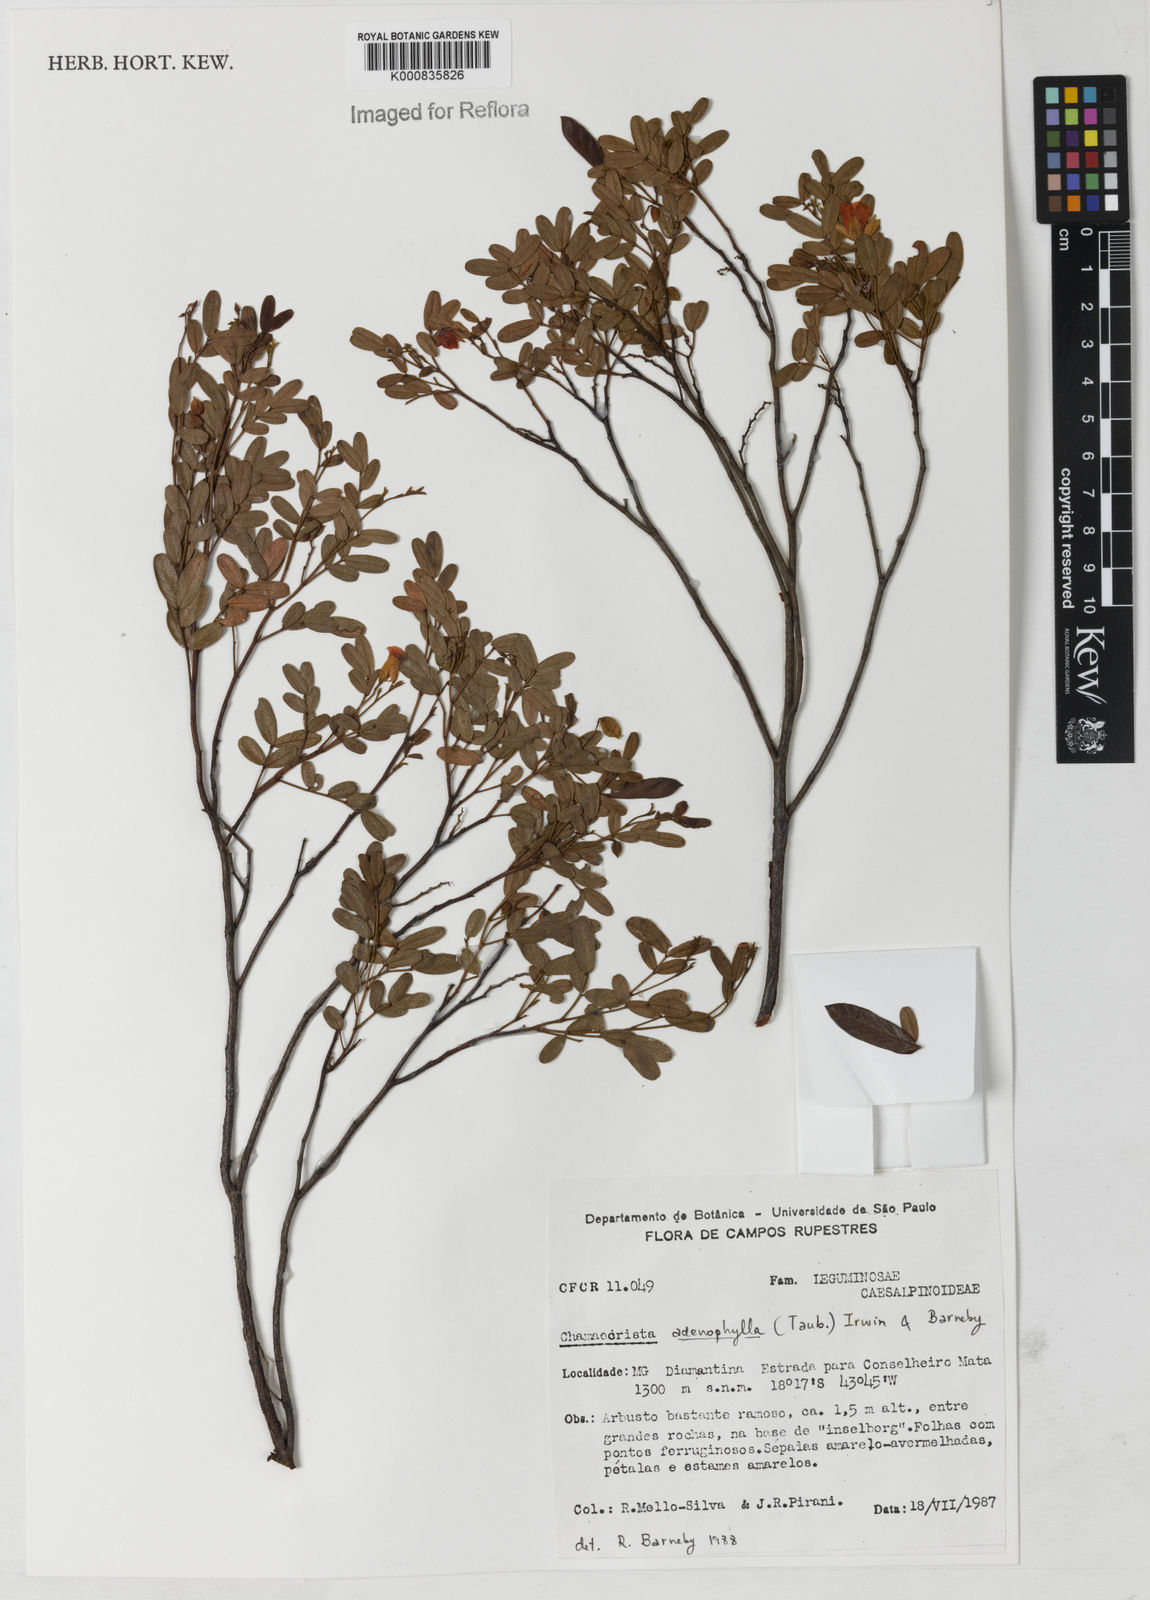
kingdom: Plantae
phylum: Tracheophyta
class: Magnoliopsida
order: Fabales
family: Fabaceae
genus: Chamaecrista
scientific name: Chamaecrista adenophylla
